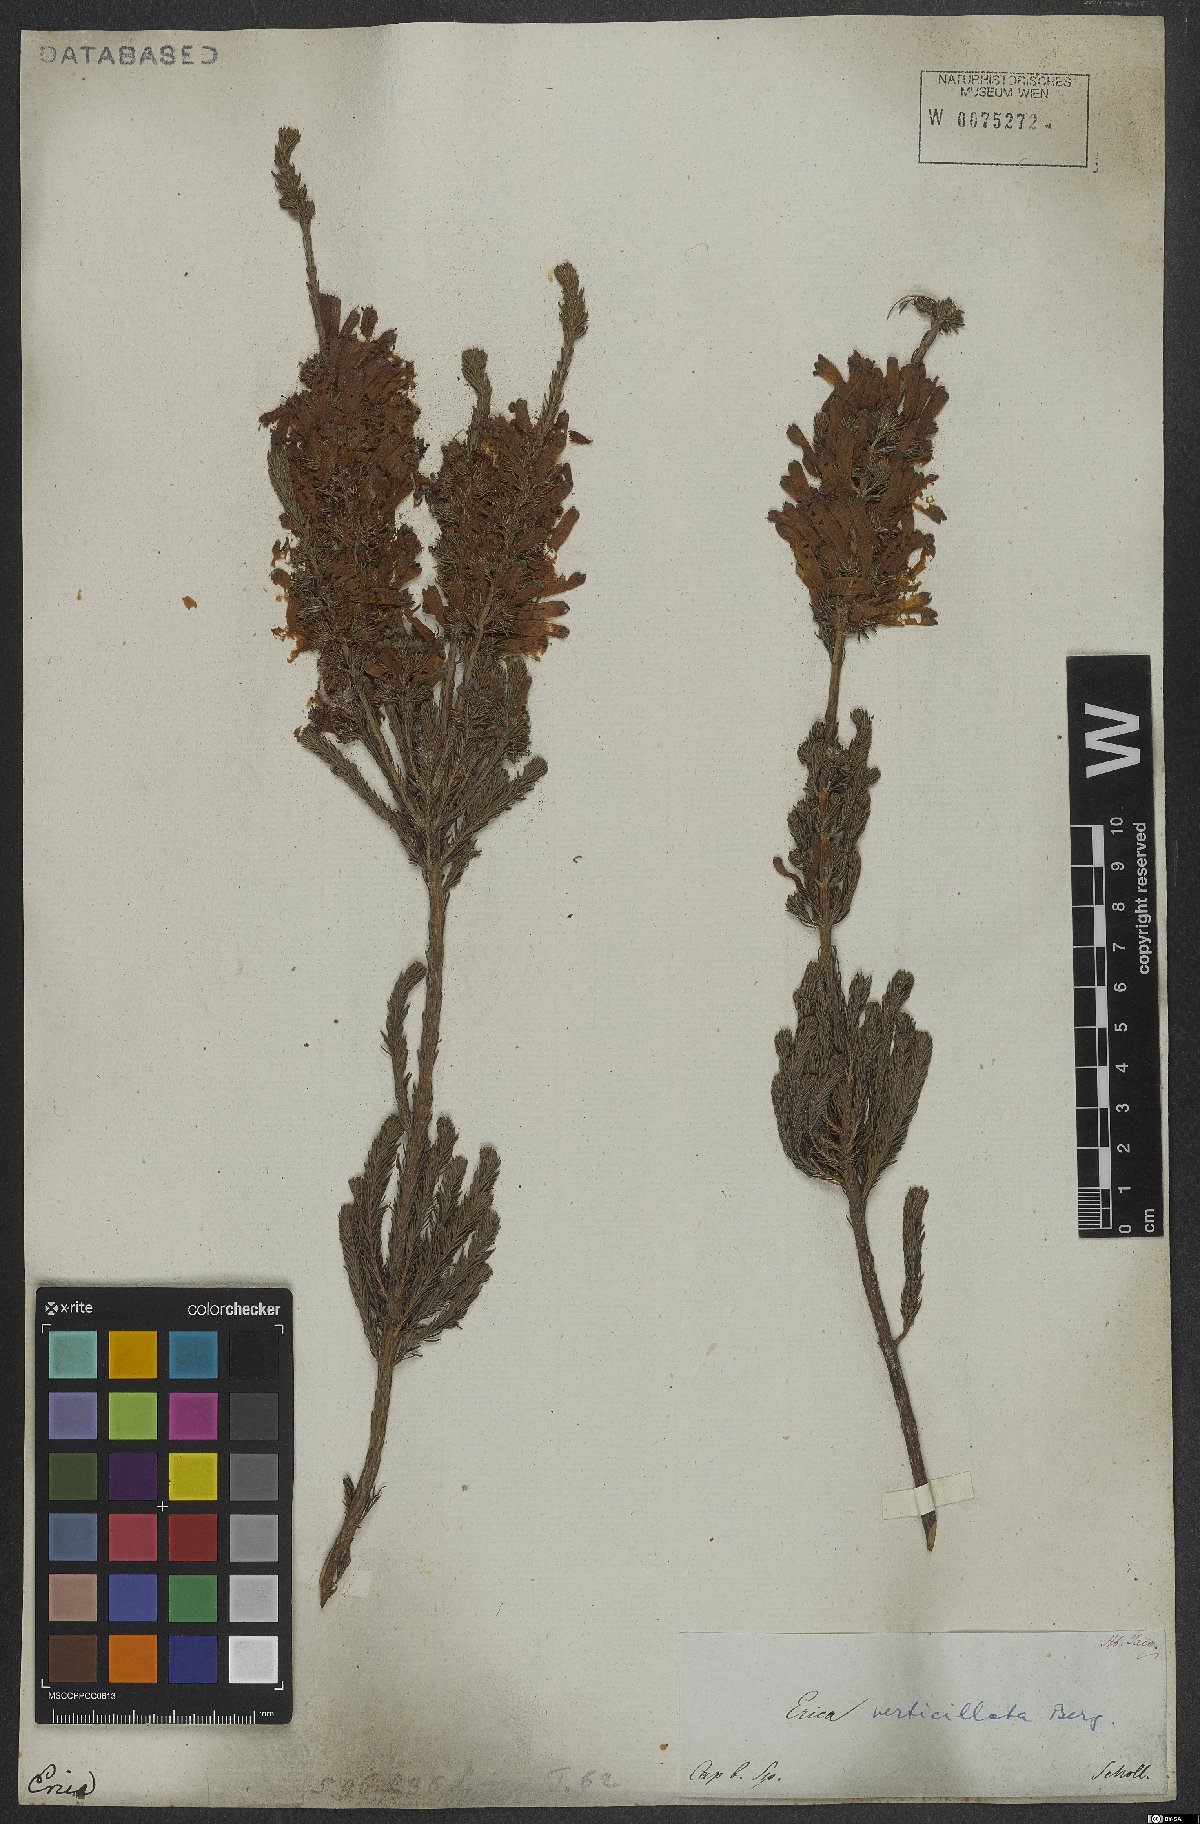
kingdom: Plantae
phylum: Tracheophyta
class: Magnoliopsida
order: Ericales
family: Ericaceae
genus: Erica
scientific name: Erica verticillata
